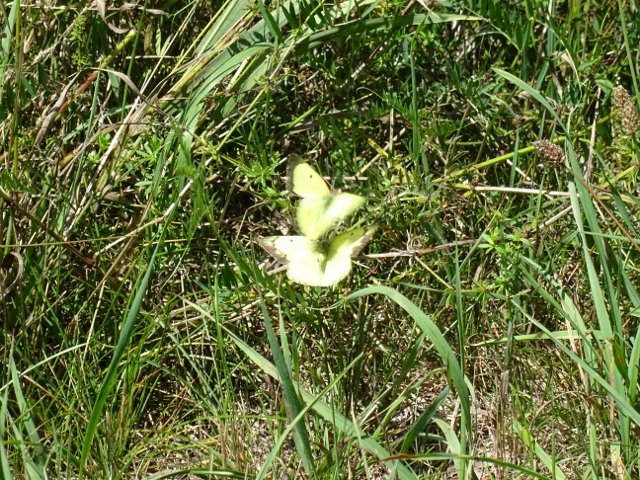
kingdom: Animalia
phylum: Arthropoda
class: Insecta
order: Lepidoptera
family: Pieridae
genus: Colias
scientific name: Colias philodice
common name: Clouded Sulphur
